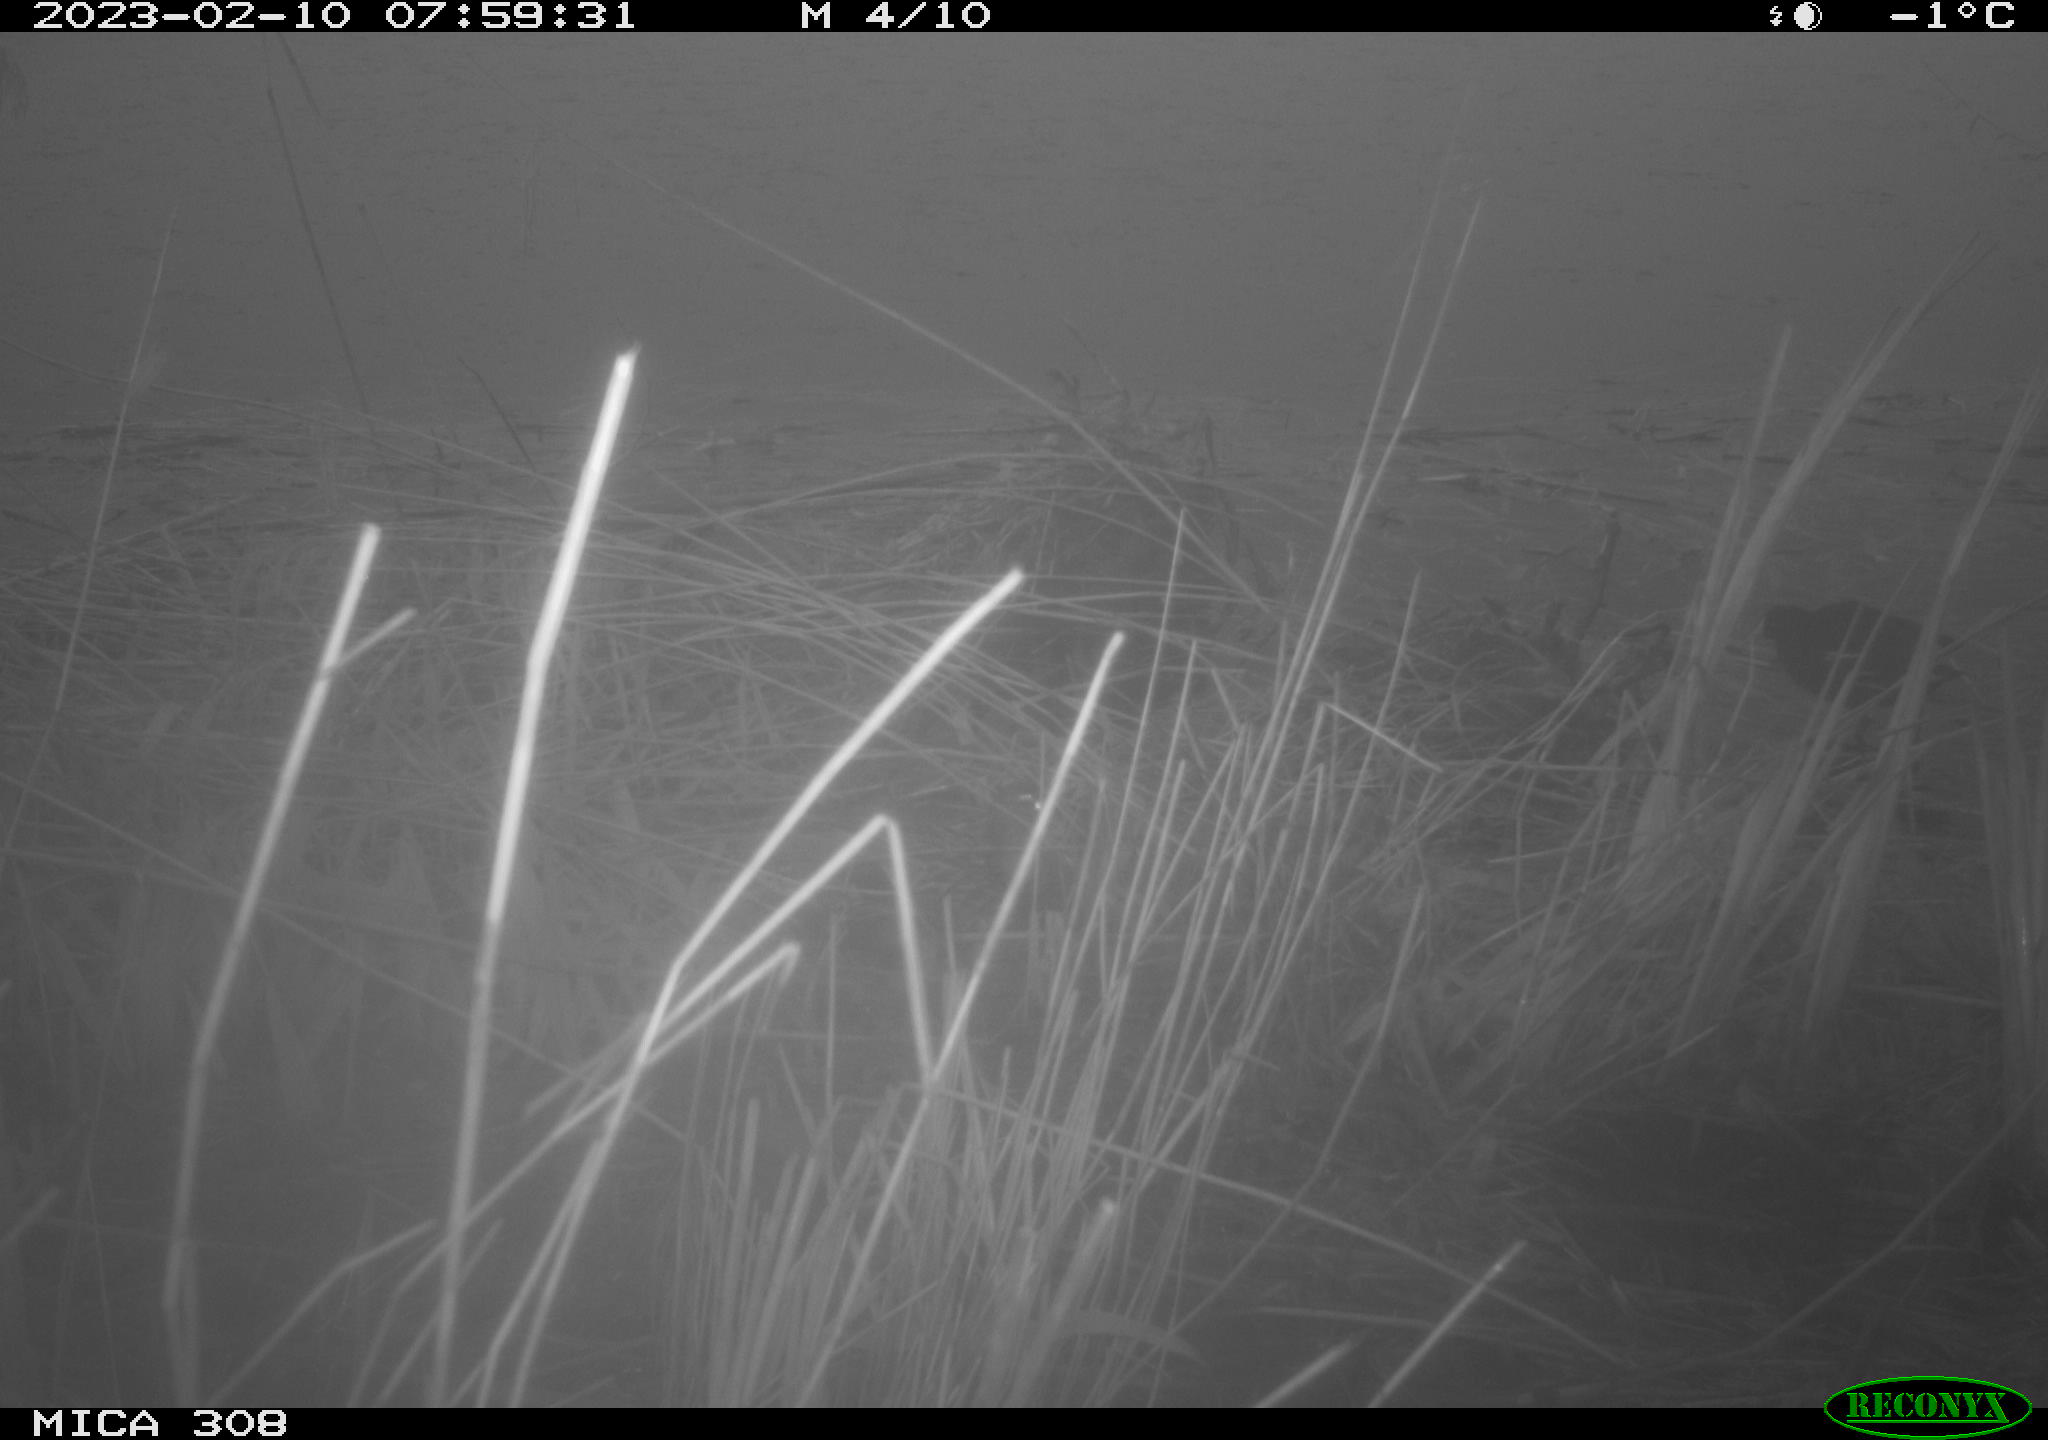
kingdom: Animalia
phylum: Chordata
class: Aves
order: Gruiformes
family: Rallidae
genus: Fulica
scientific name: Fulica atra
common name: Eurasian coot
